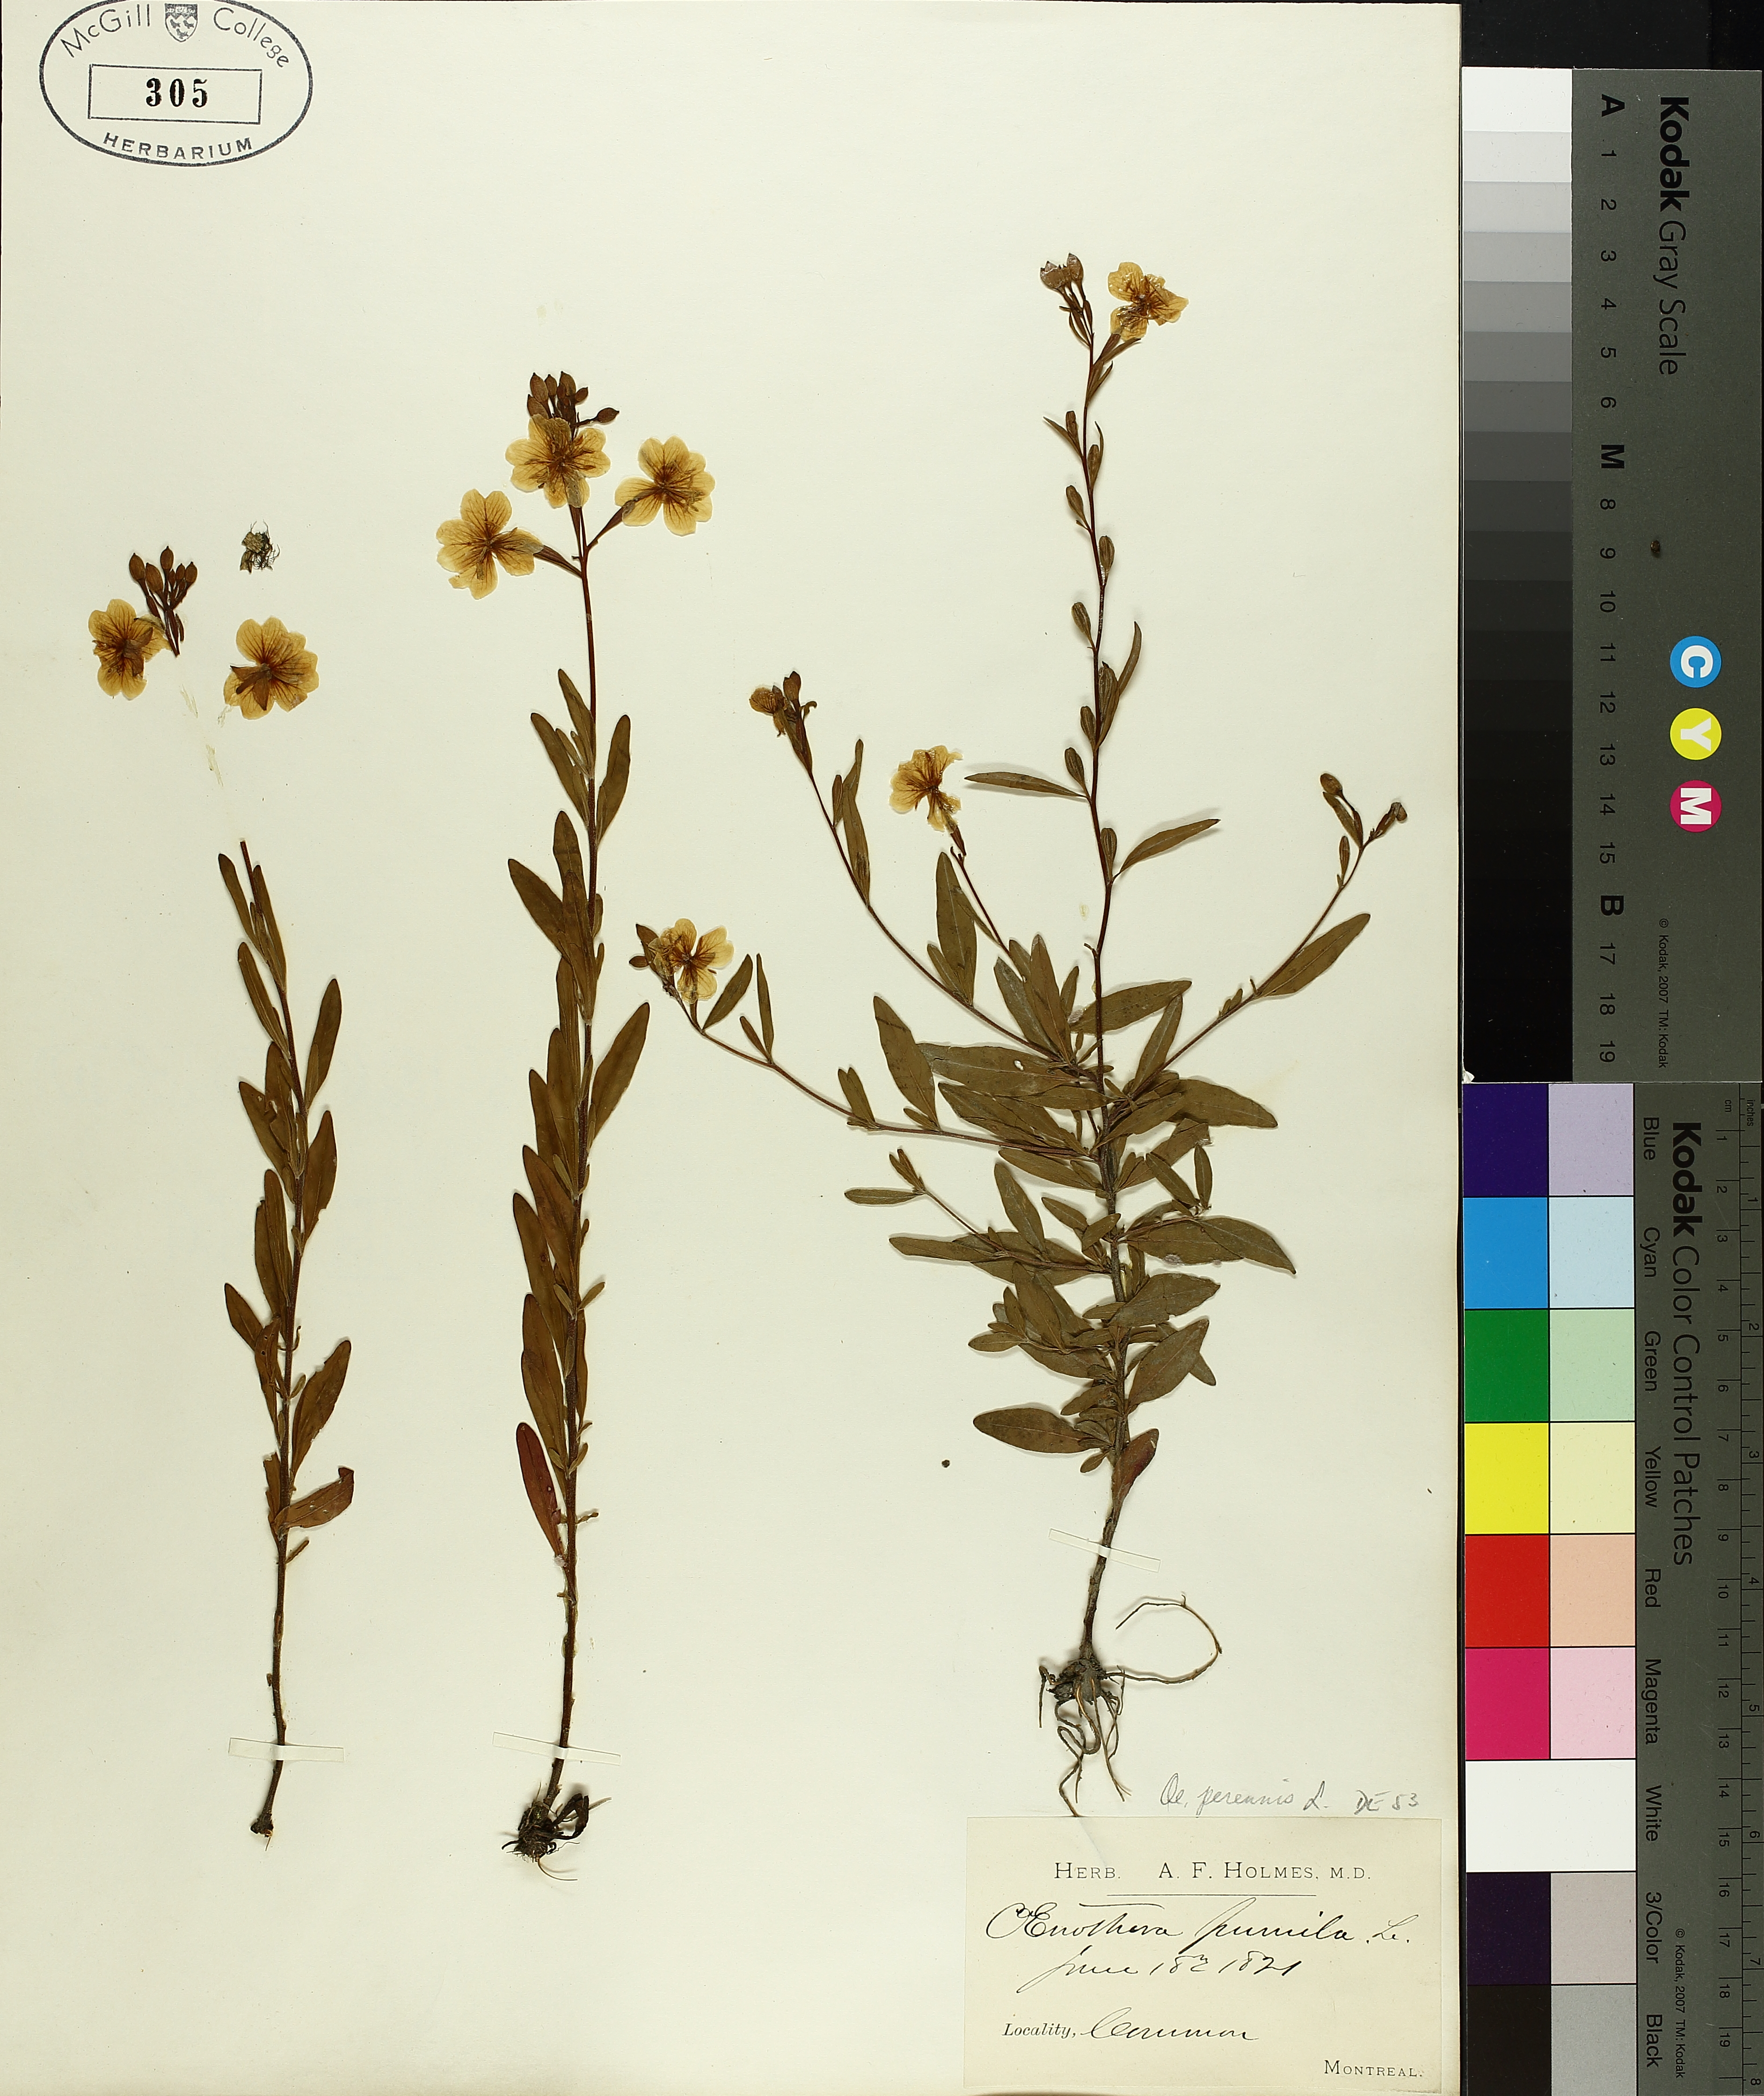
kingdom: Plantae
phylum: Tracheophyta
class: Magnoliopsida
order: Myrtales
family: Onagraceae
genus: Oenothera
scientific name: Oenothera perennis
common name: Small sundrops
